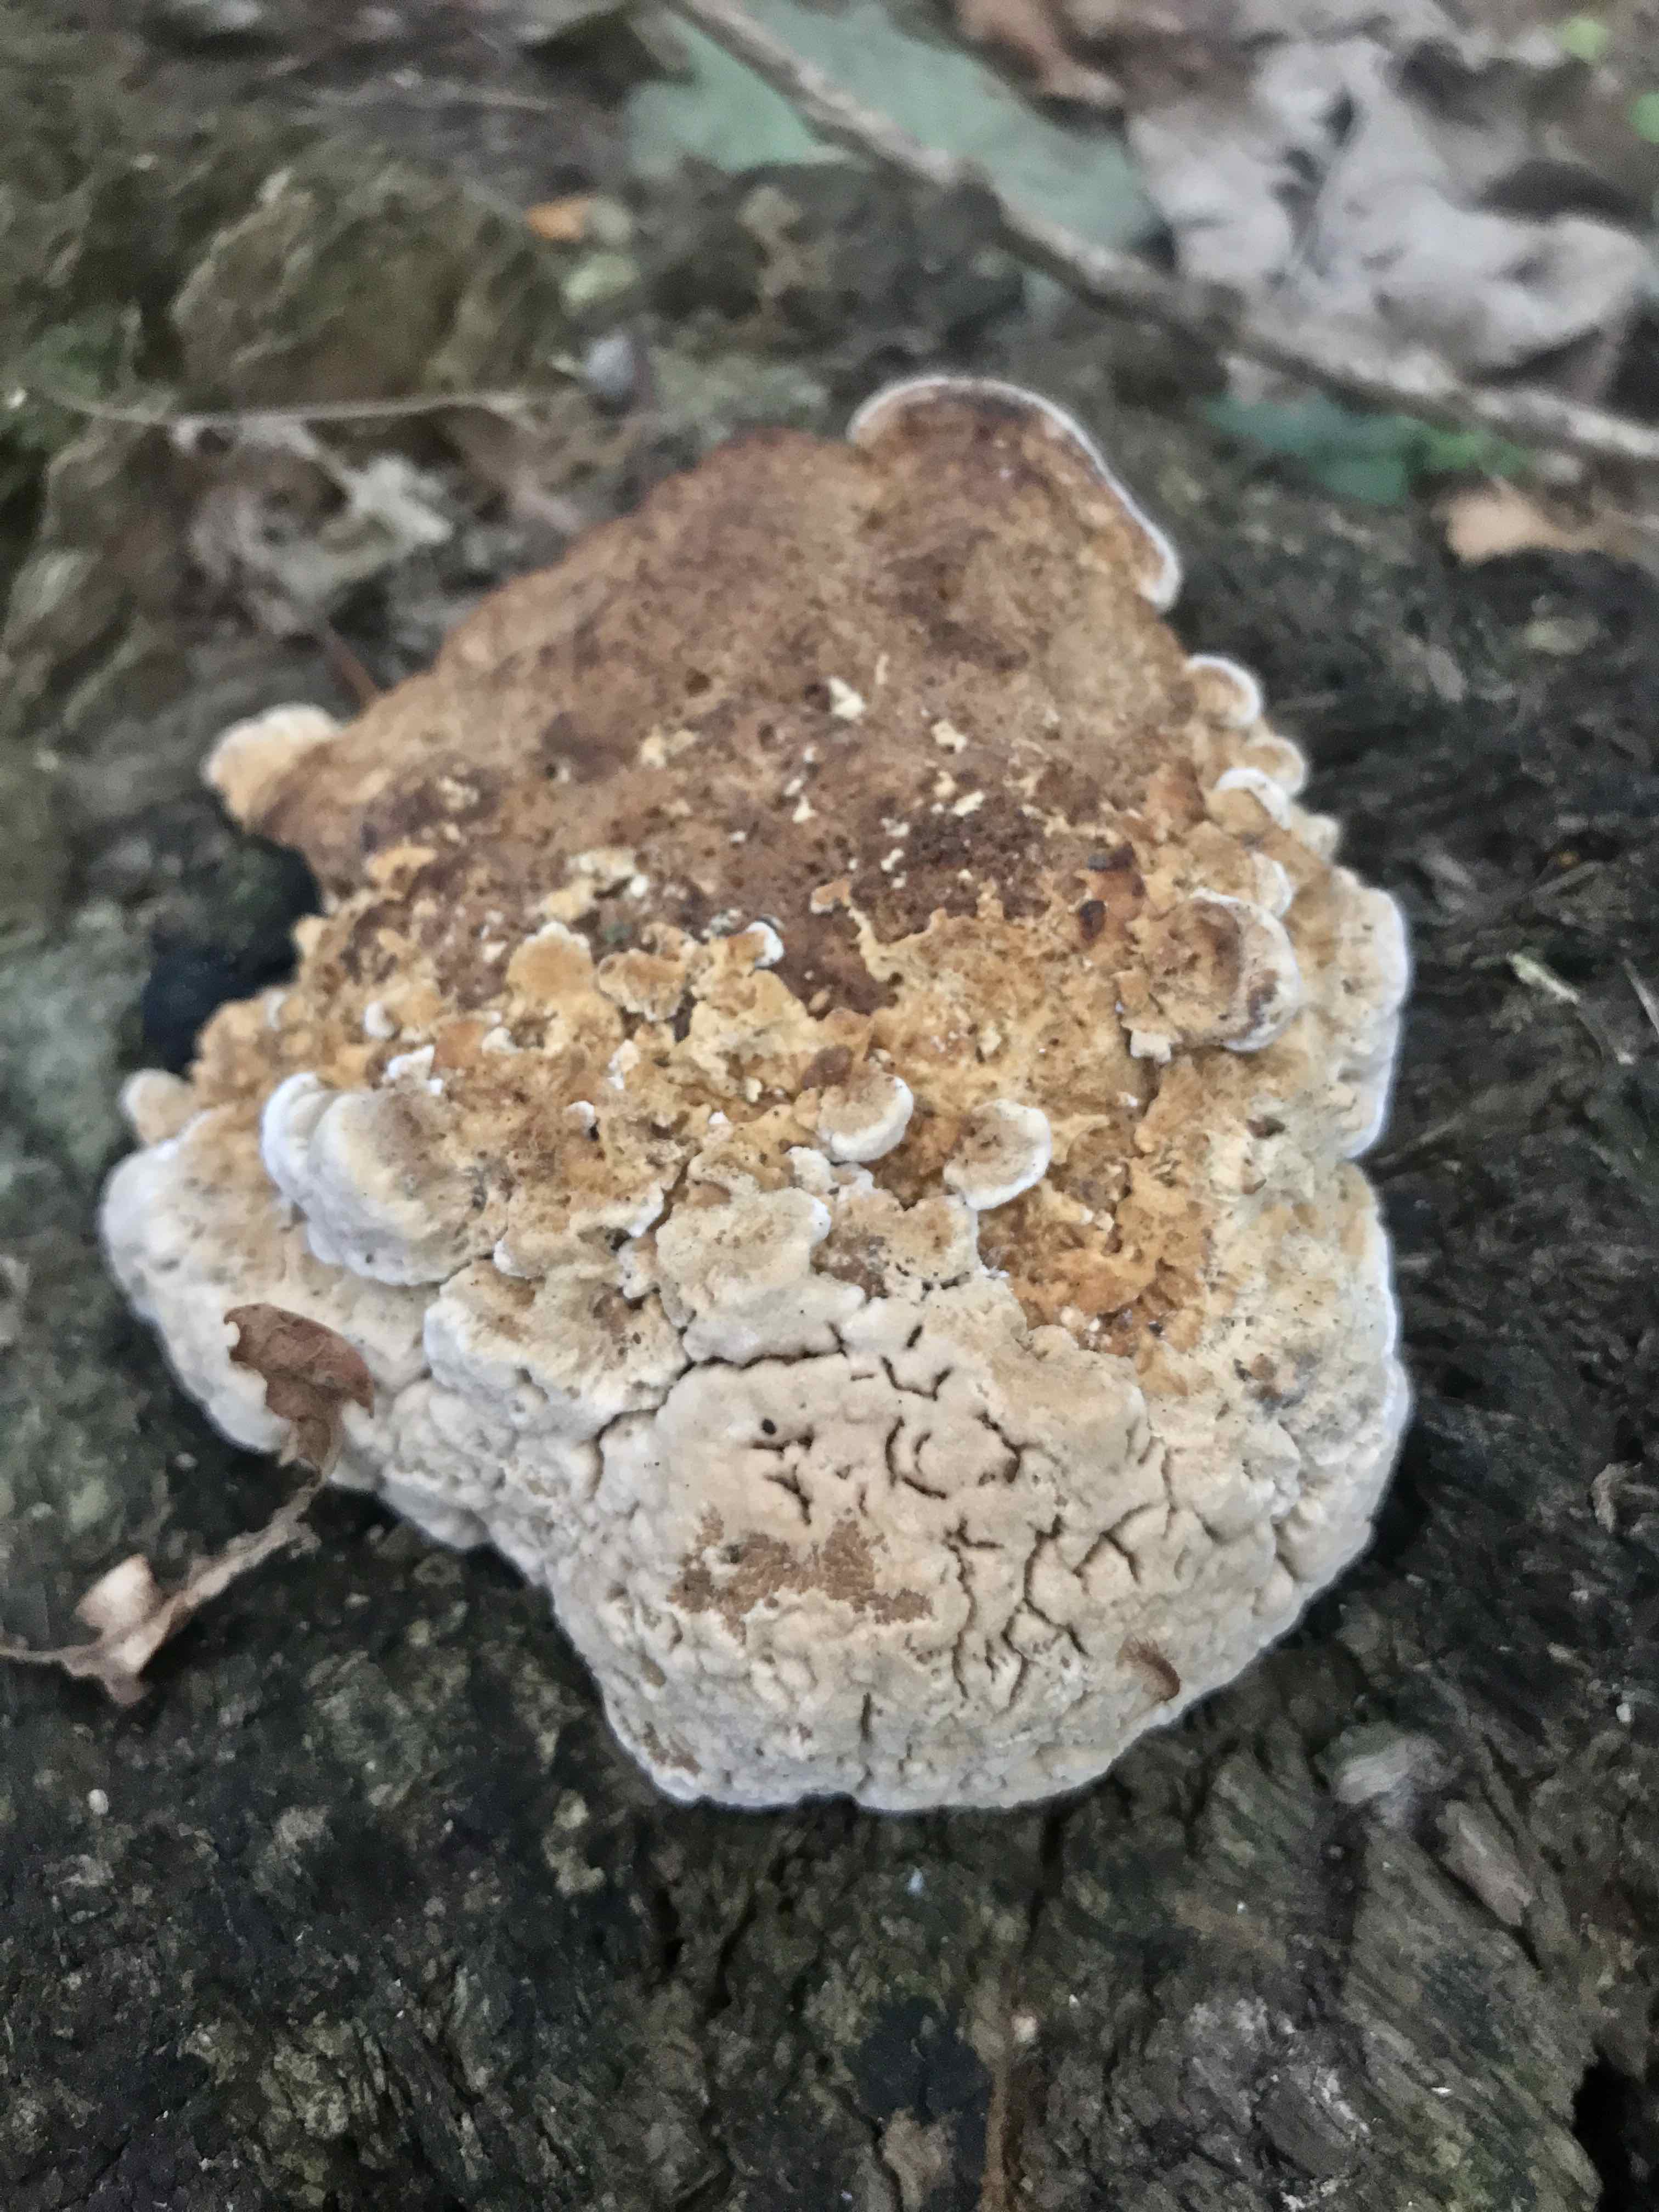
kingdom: Fungi
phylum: Basidiomycota
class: Agaricomycetes
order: Polyporales
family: Fomitopsidaceae
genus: Daedalea
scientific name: Daedalea quercina
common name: ege-labyrintsvamp
